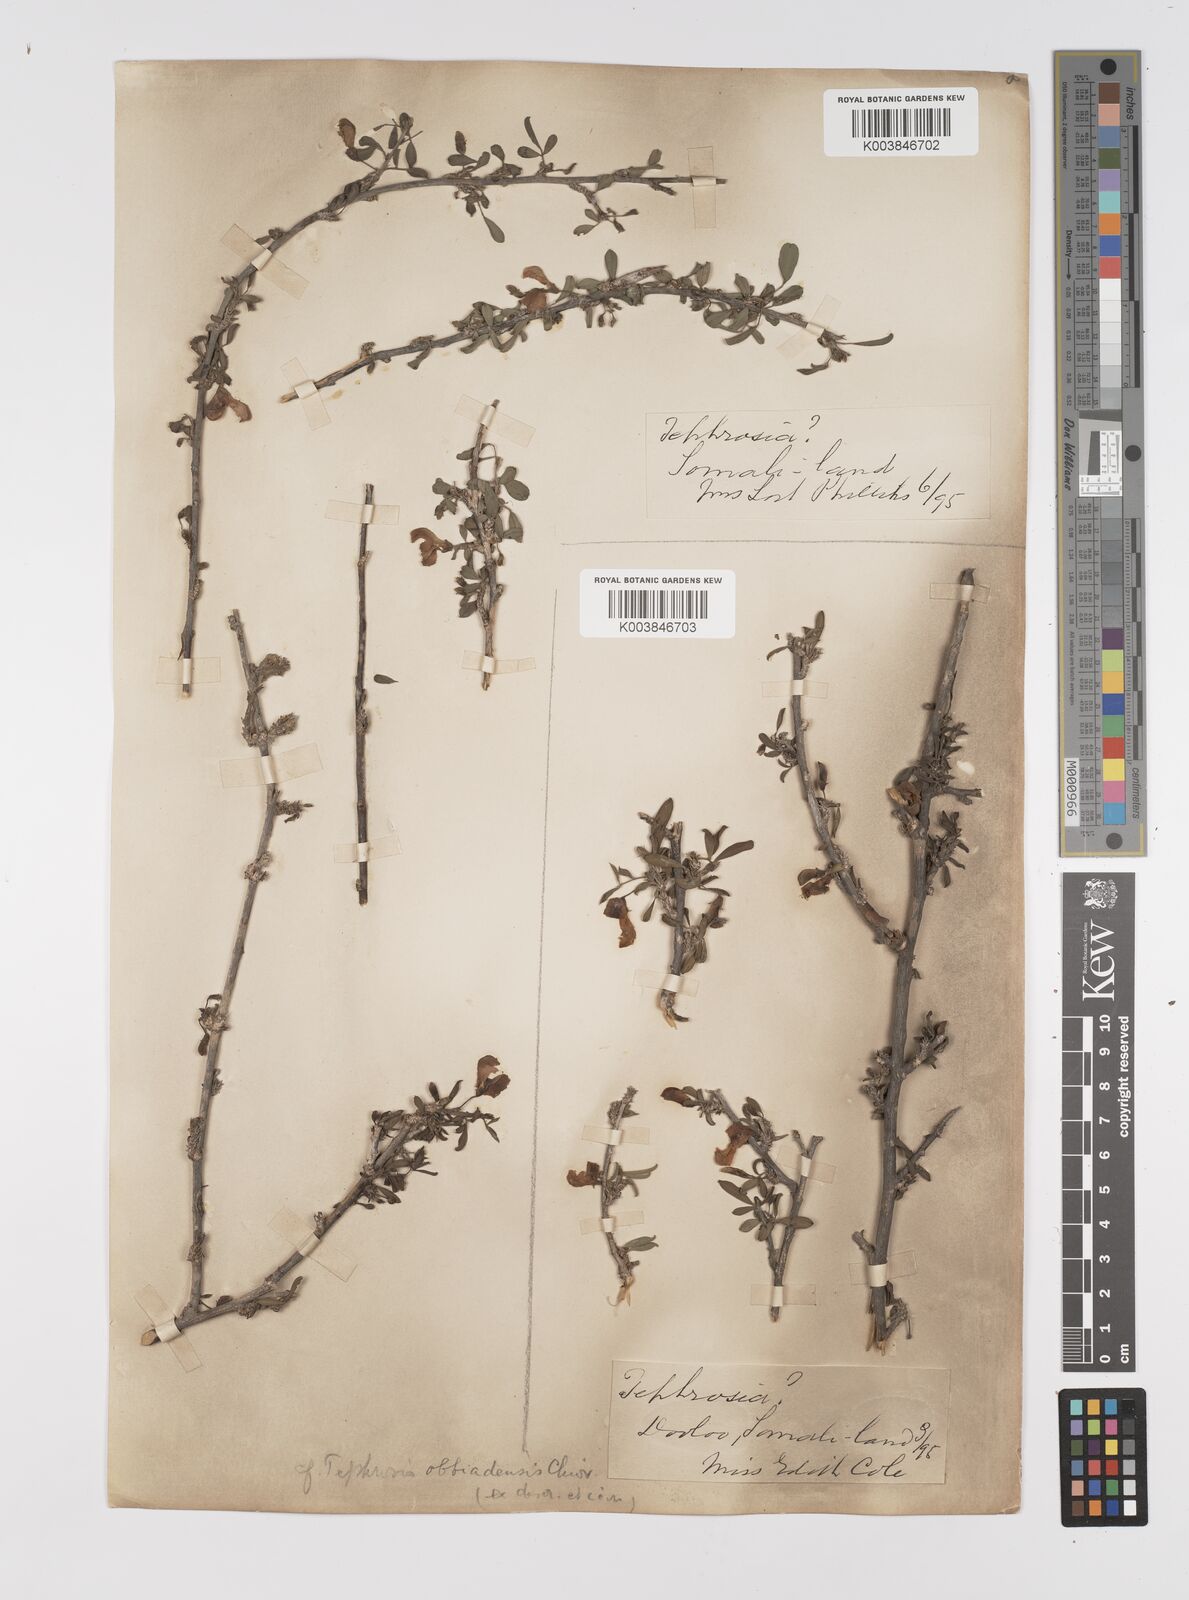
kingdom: Plantae
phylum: Tracheophyta
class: Magnoliopsida
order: Fabales
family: Fabaceae
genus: Tephrosia
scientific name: Tephrosia obbiadensis
